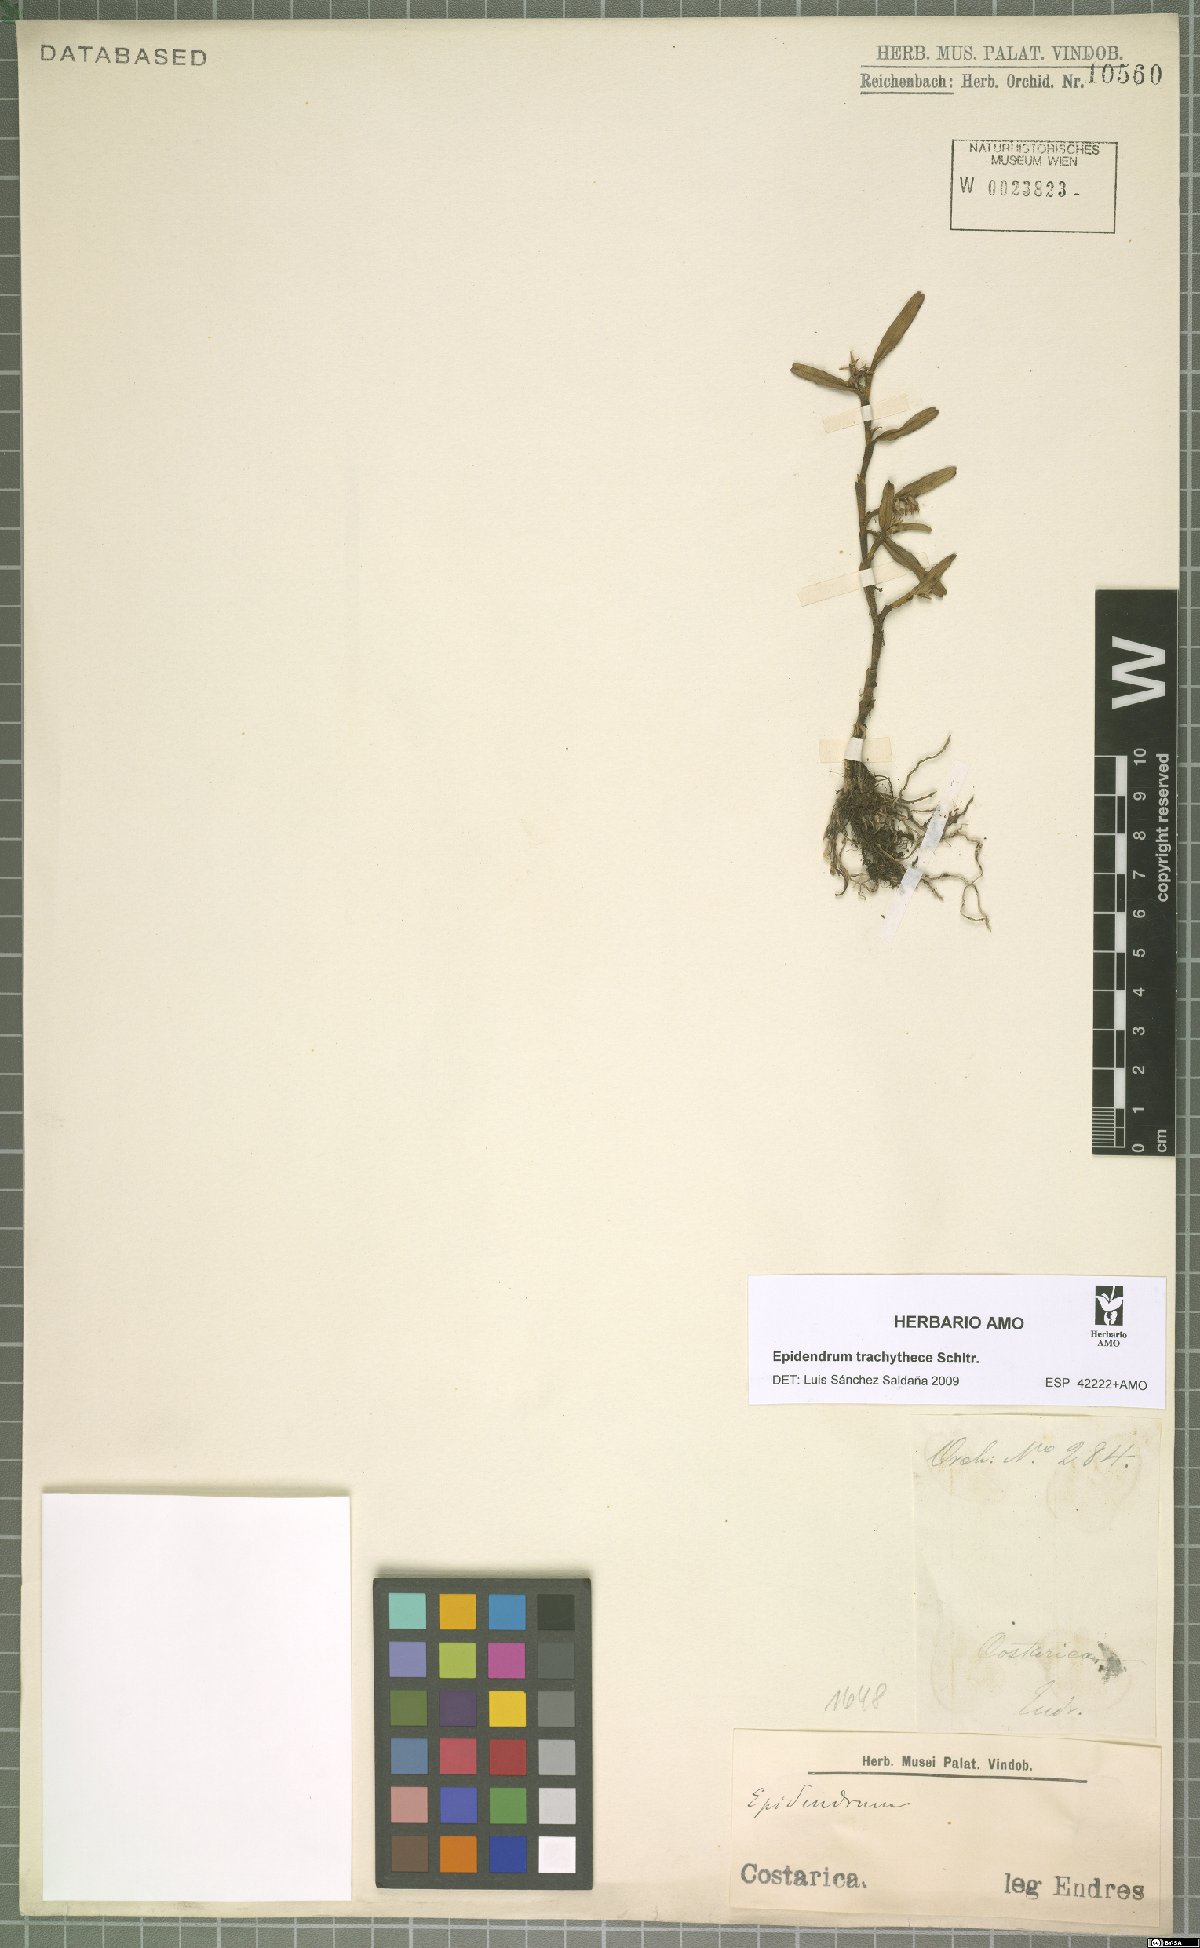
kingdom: Plantae
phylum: Tracheophyta
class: Liliopsida
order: Asparagales
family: Orchidaceae
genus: Epidendrum
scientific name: Epidendrum trachythece
